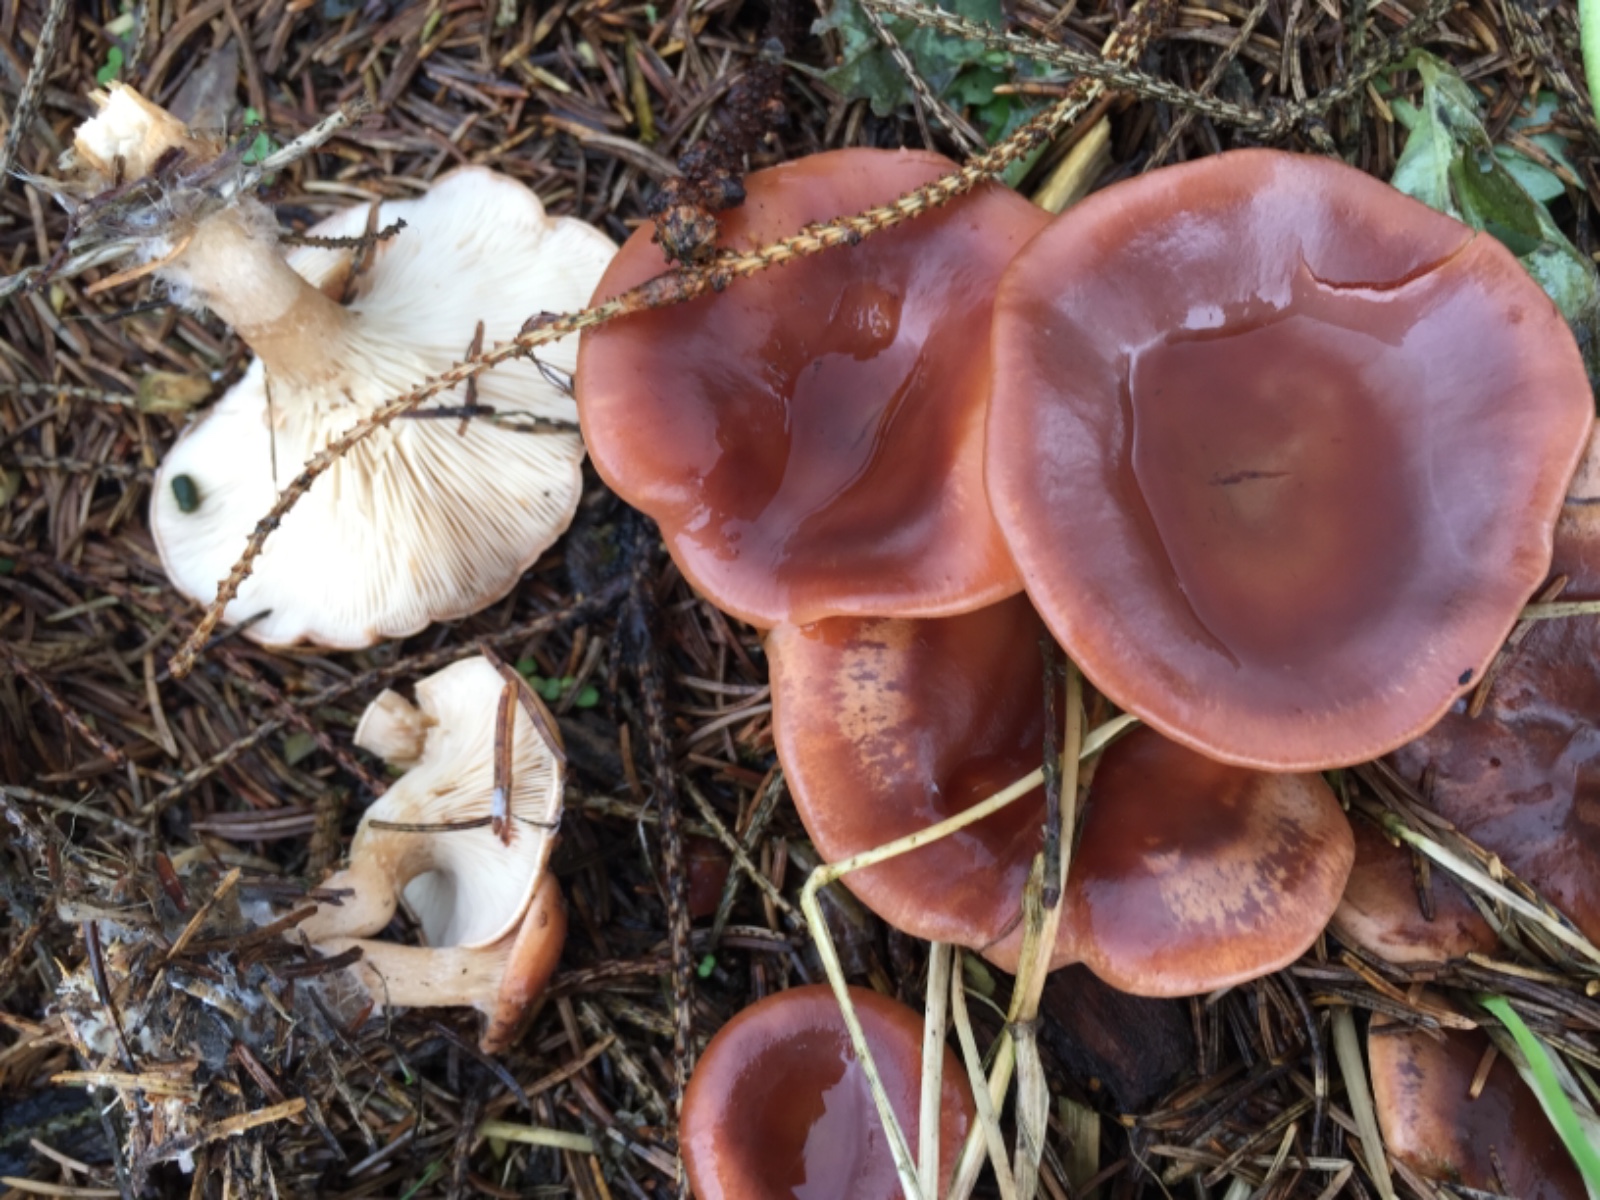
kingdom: Fungi
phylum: Basidiomycota
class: Agaricomycetes
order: Agaricales
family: Tricholomataceae
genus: Paralepista
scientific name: Paralepista flaccida
